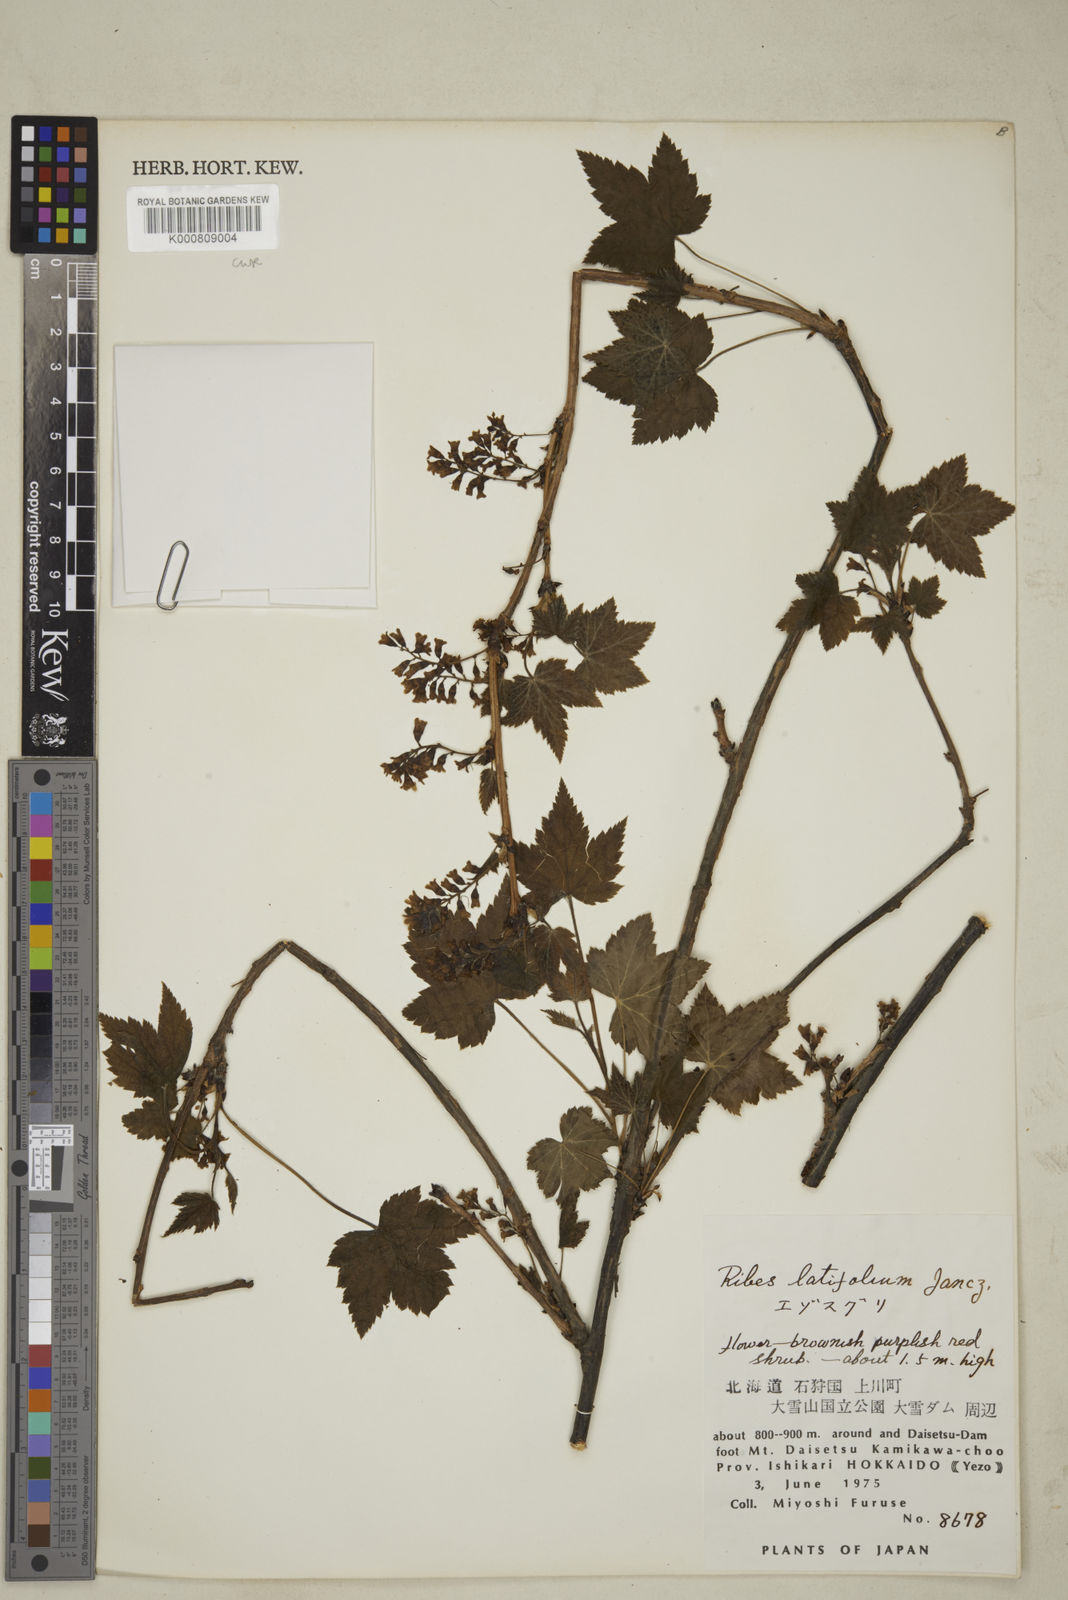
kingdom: Plantae
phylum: Tracheophyta
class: Magnoliopsida
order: Saxifragales
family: Grossulariaceae
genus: Ribes
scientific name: Ribes latifolium
